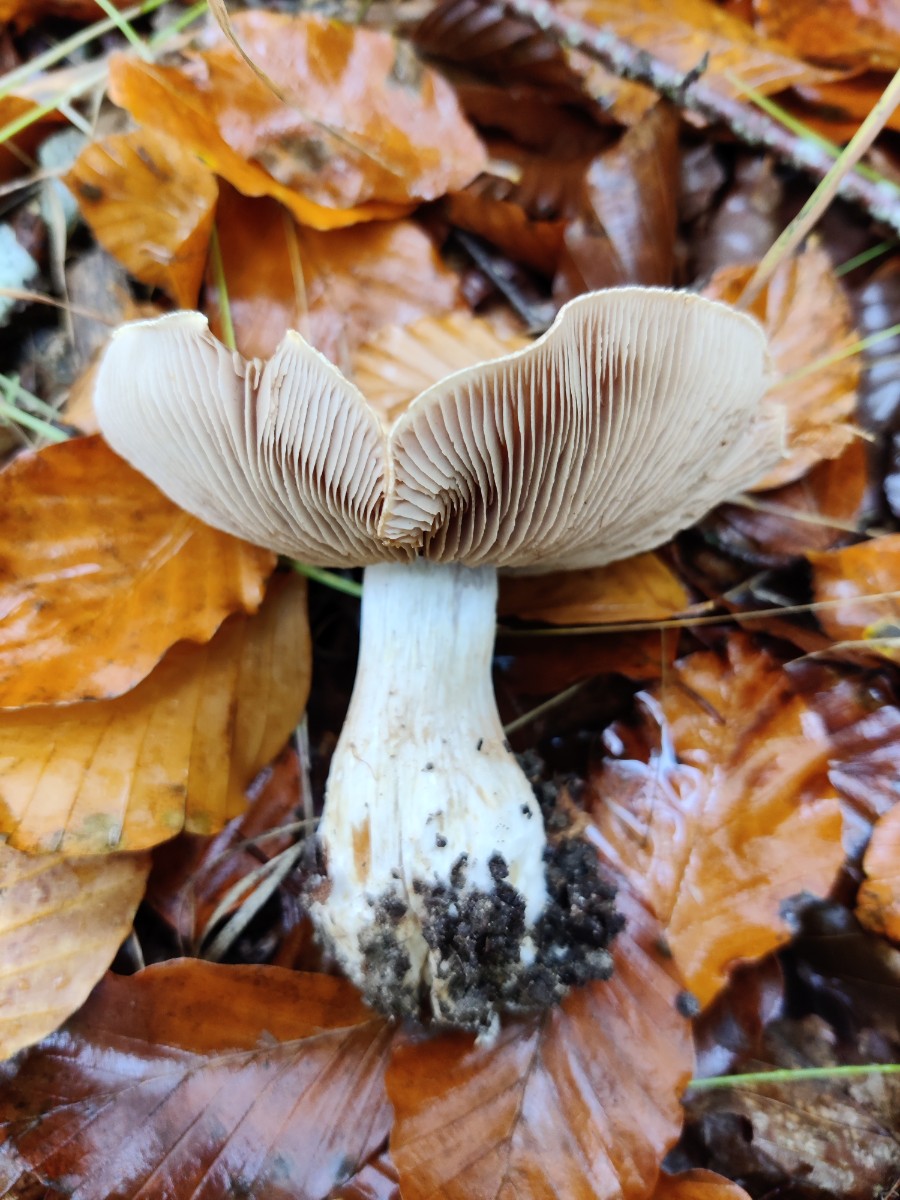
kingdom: Fungi
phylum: Basidiomycota
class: Agaricomycetes
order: Agaricales
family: Cortinariaceae
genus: Thaxterogaster
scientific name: Thaxterogaster argenteolilacinus
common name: sølvskinnende slørhat
